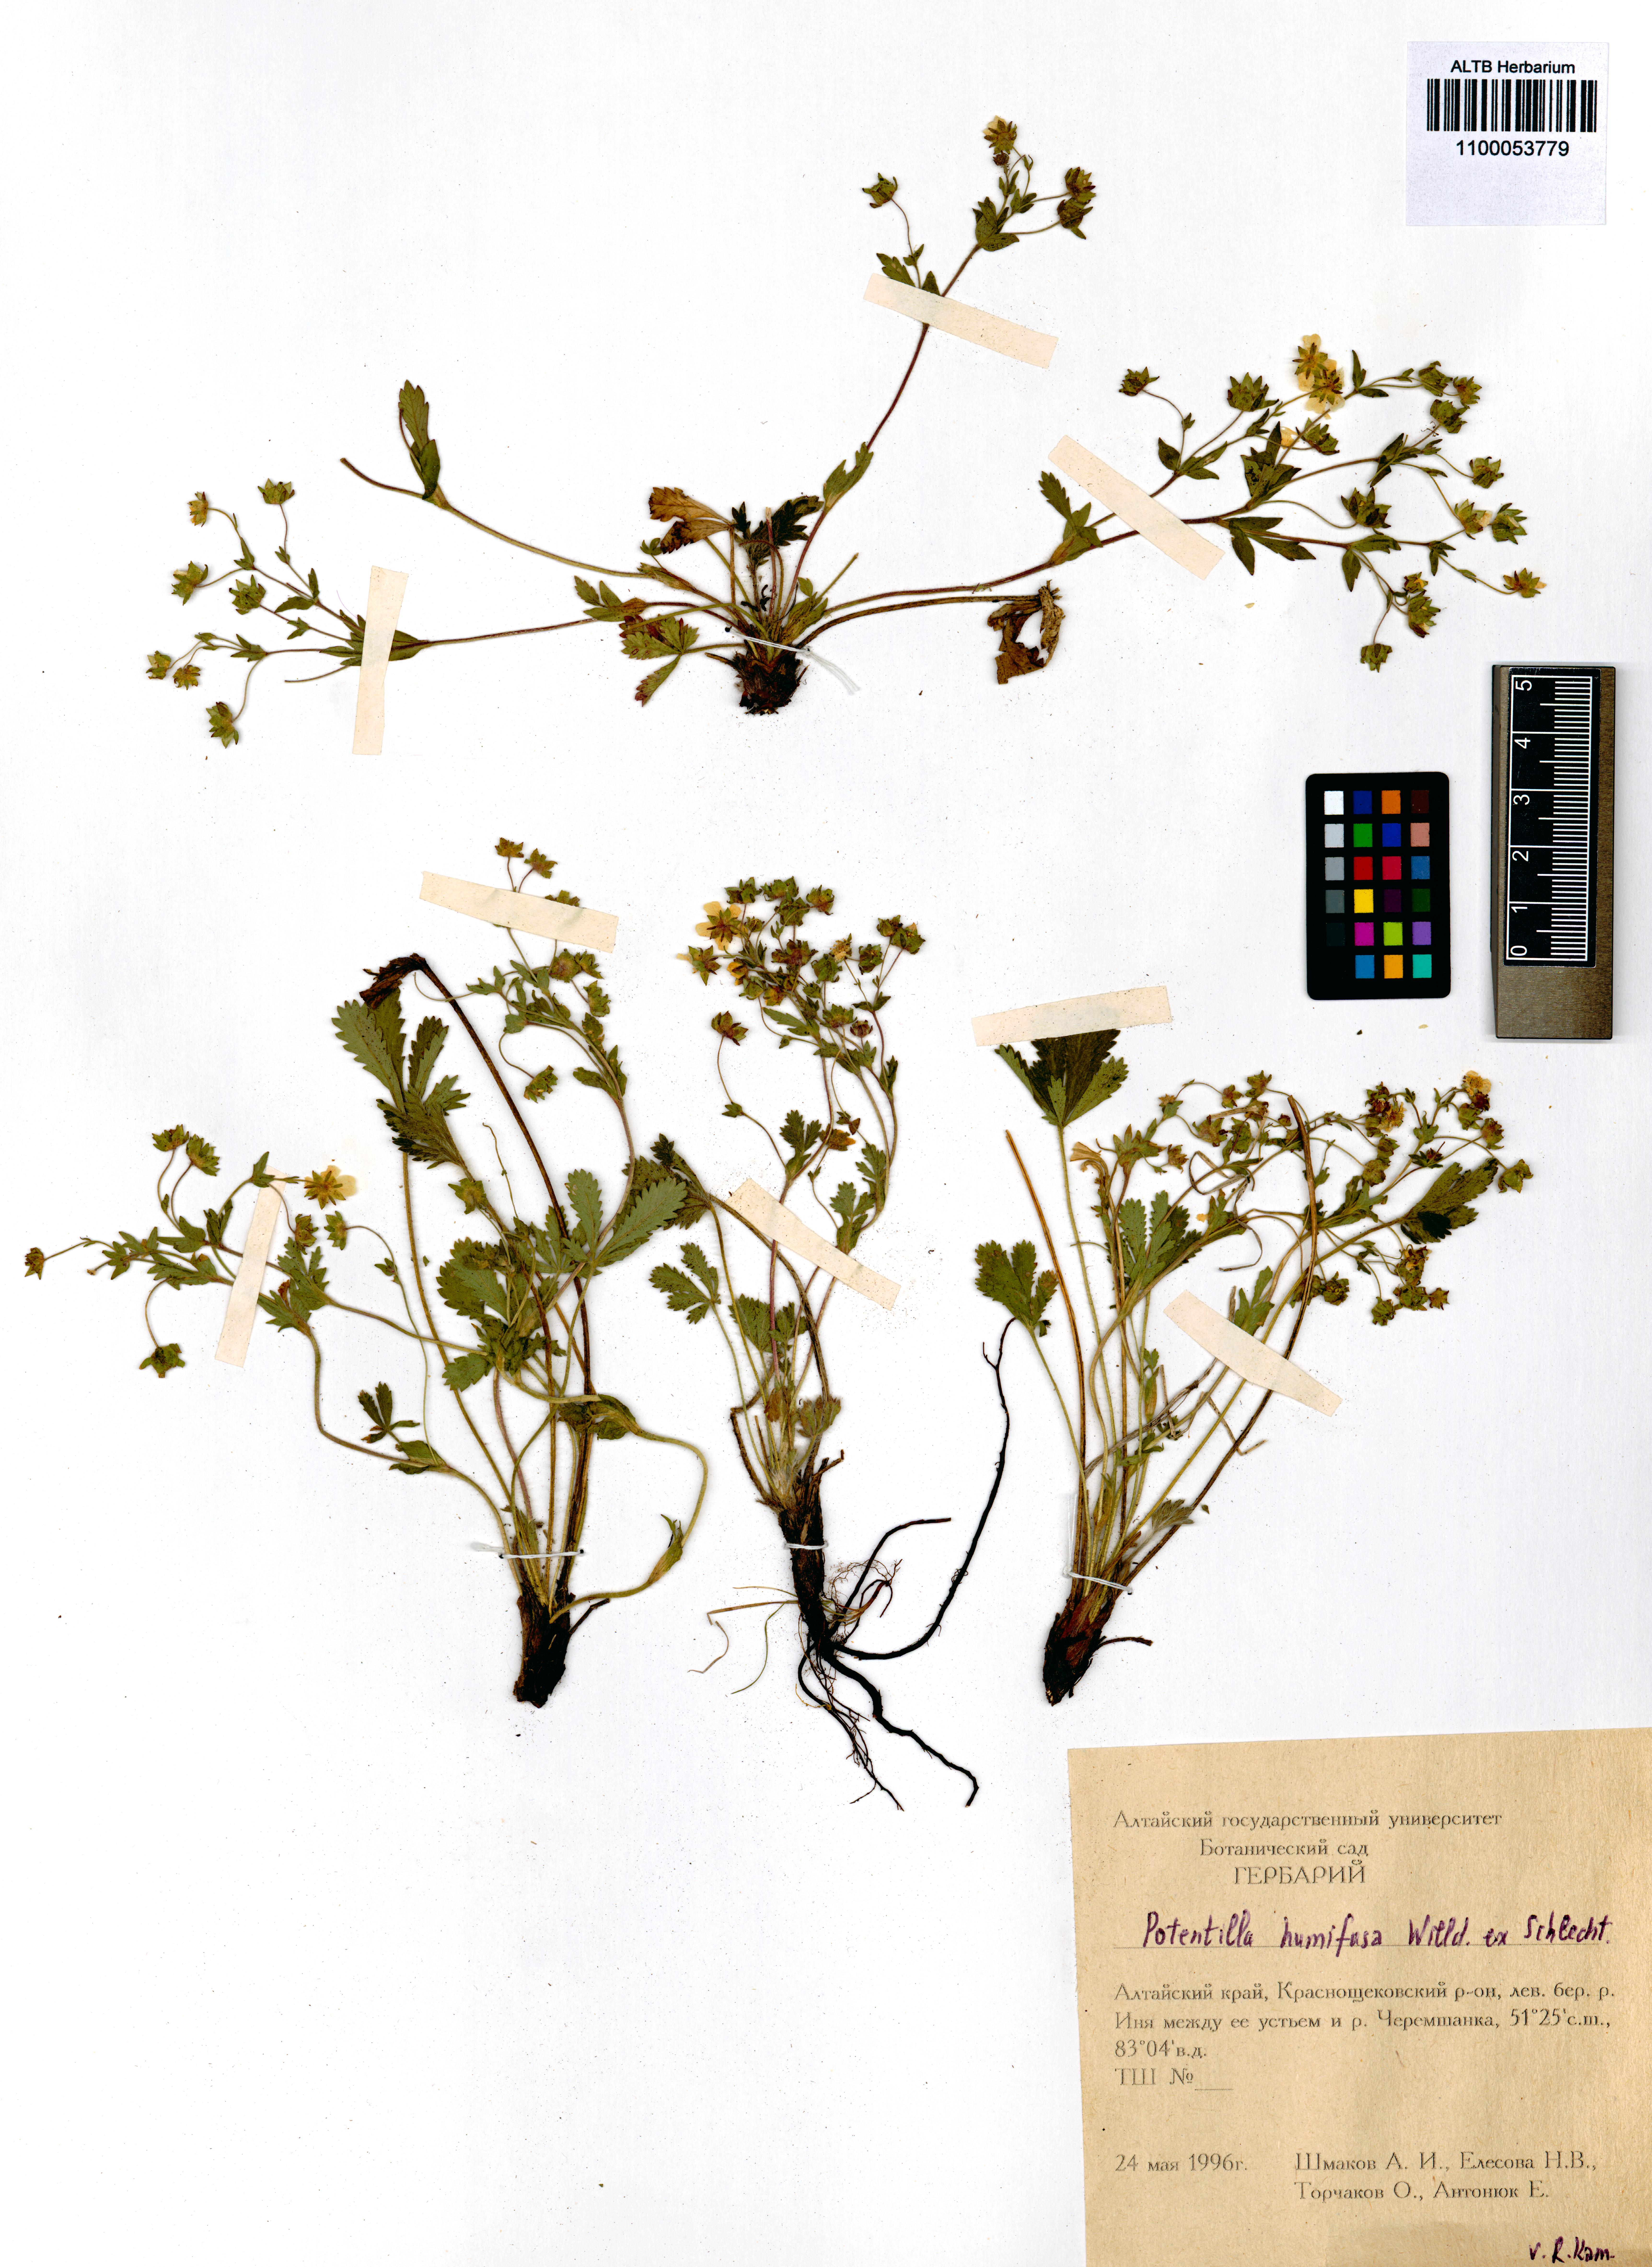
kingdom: Plantae
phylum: Tracheophyta
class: Magnoliopsida
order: Rosales
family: Rosaceae
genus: Potentilla
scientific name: Potentilla humifusa
